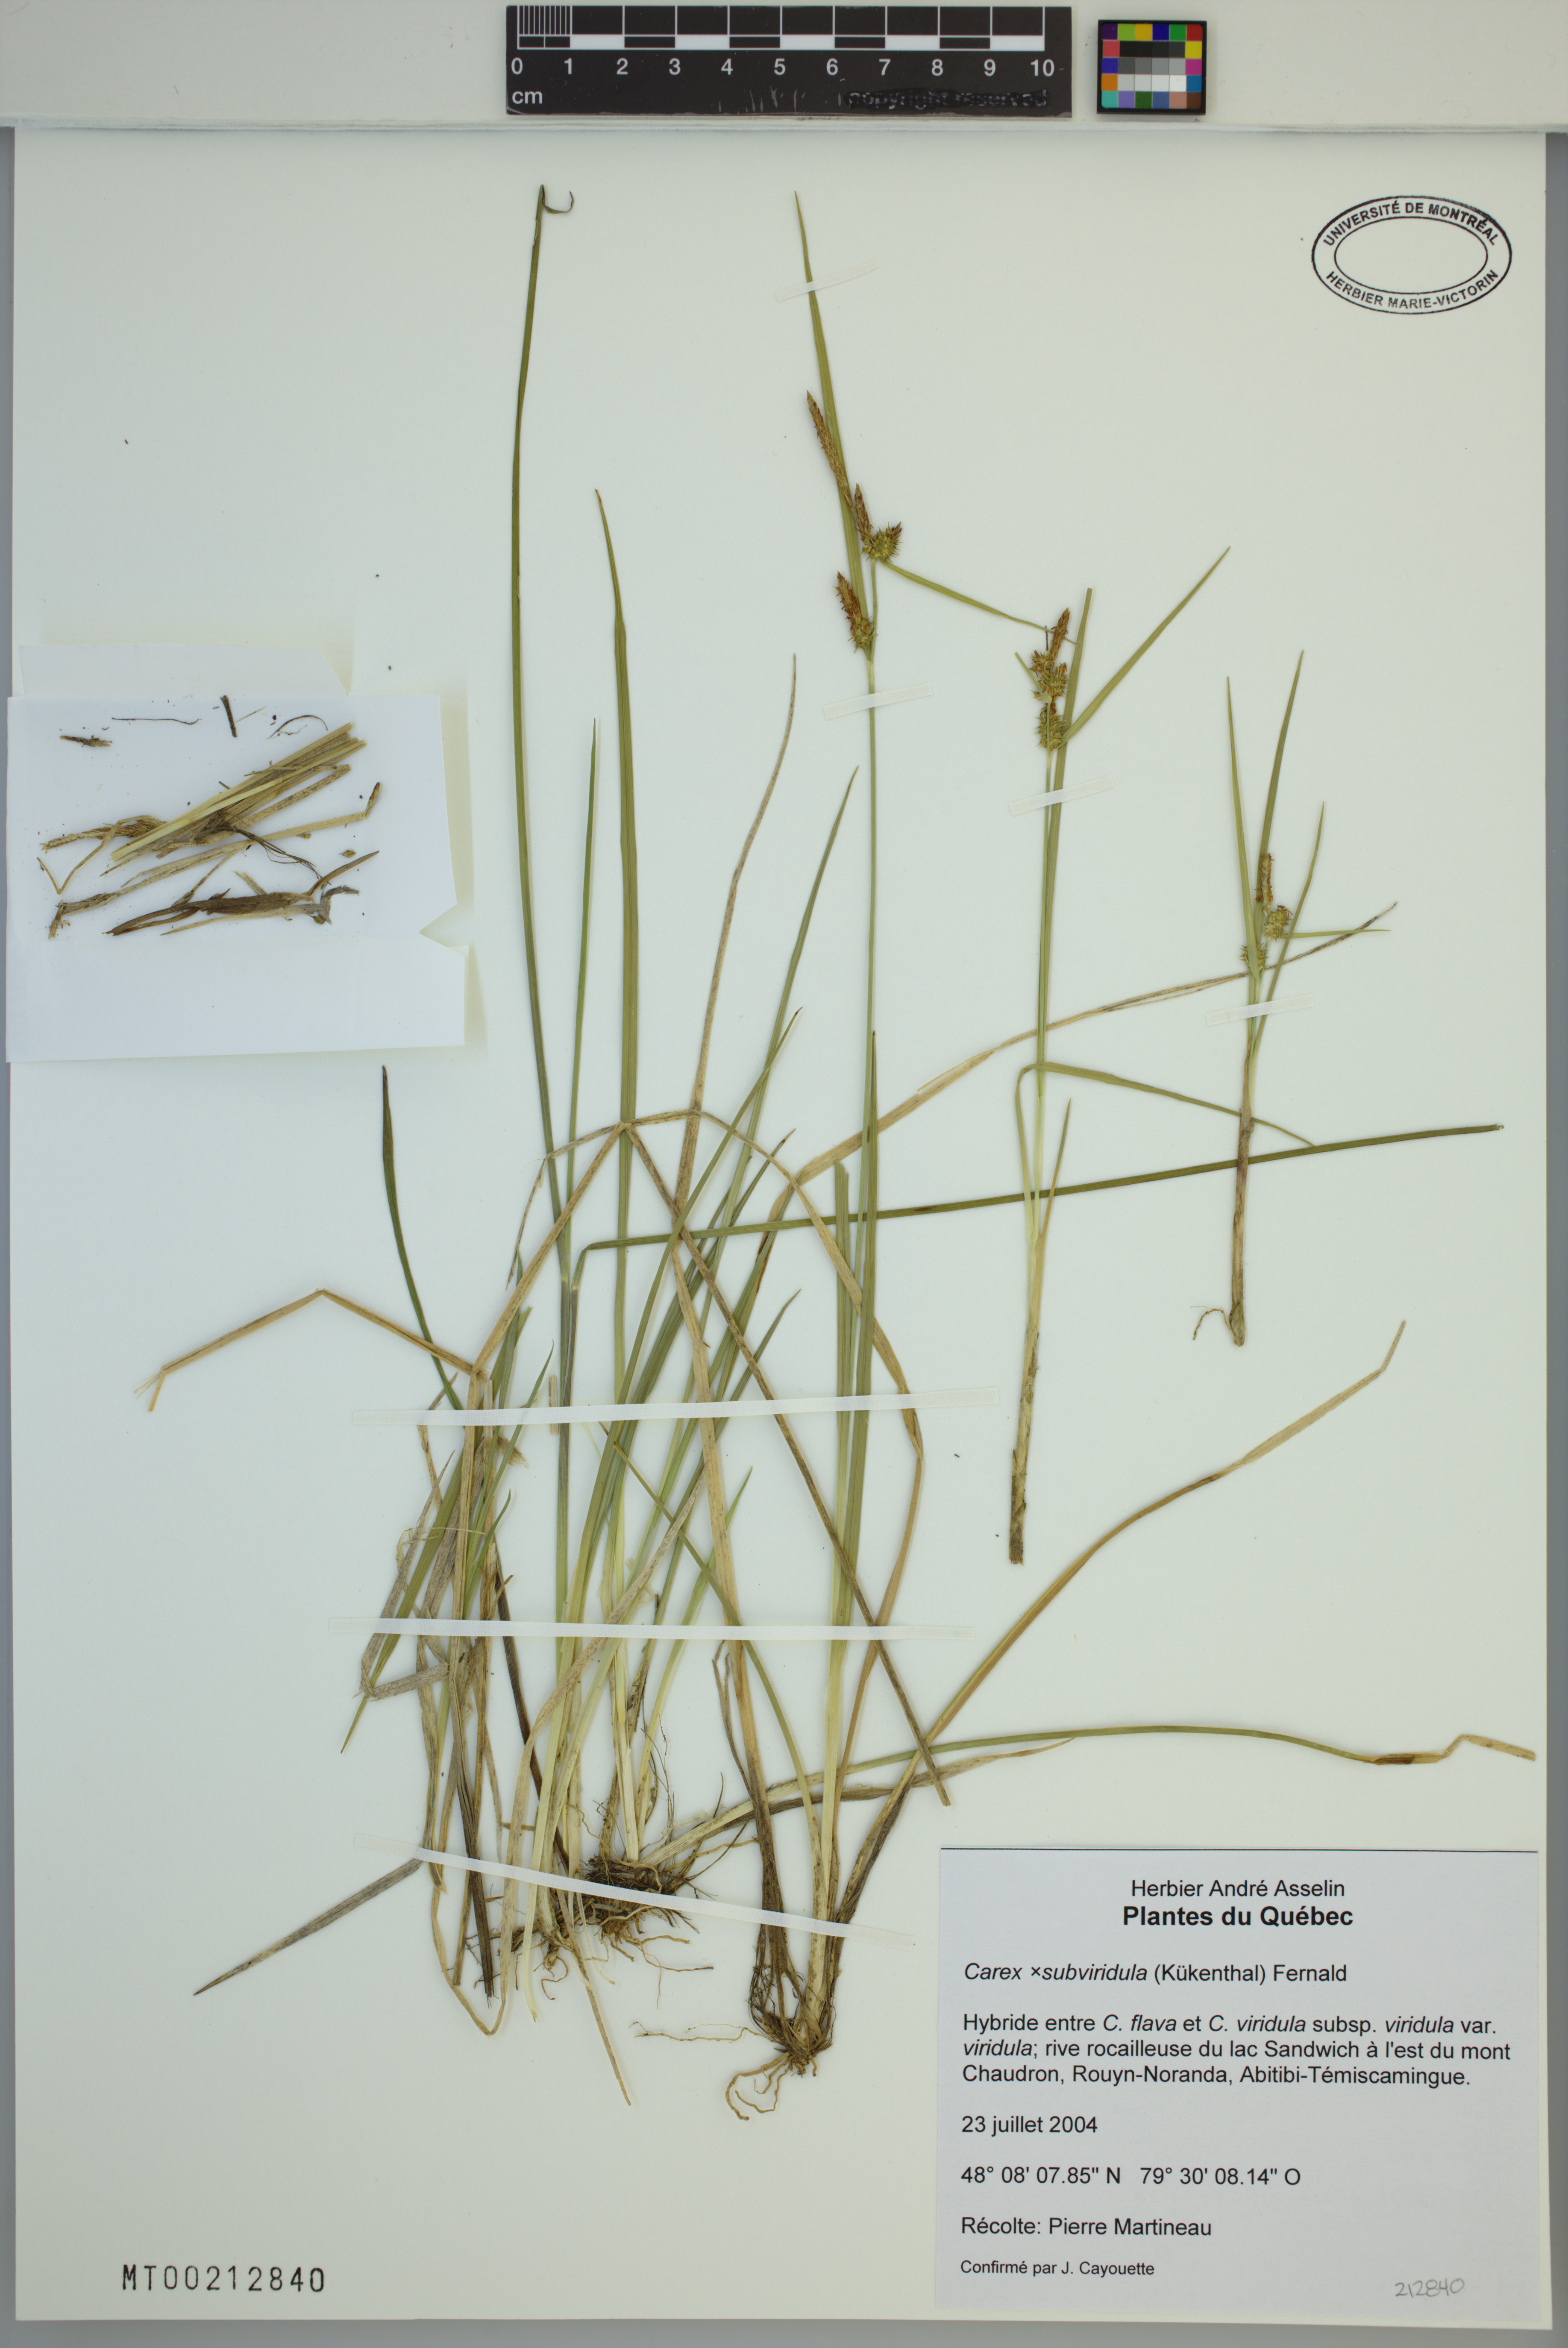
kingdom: Plantae
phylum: Tracheophyta
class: Liliopsida
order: Poales
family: Cyperaceae
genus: Carex
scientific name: Carex subviridula
